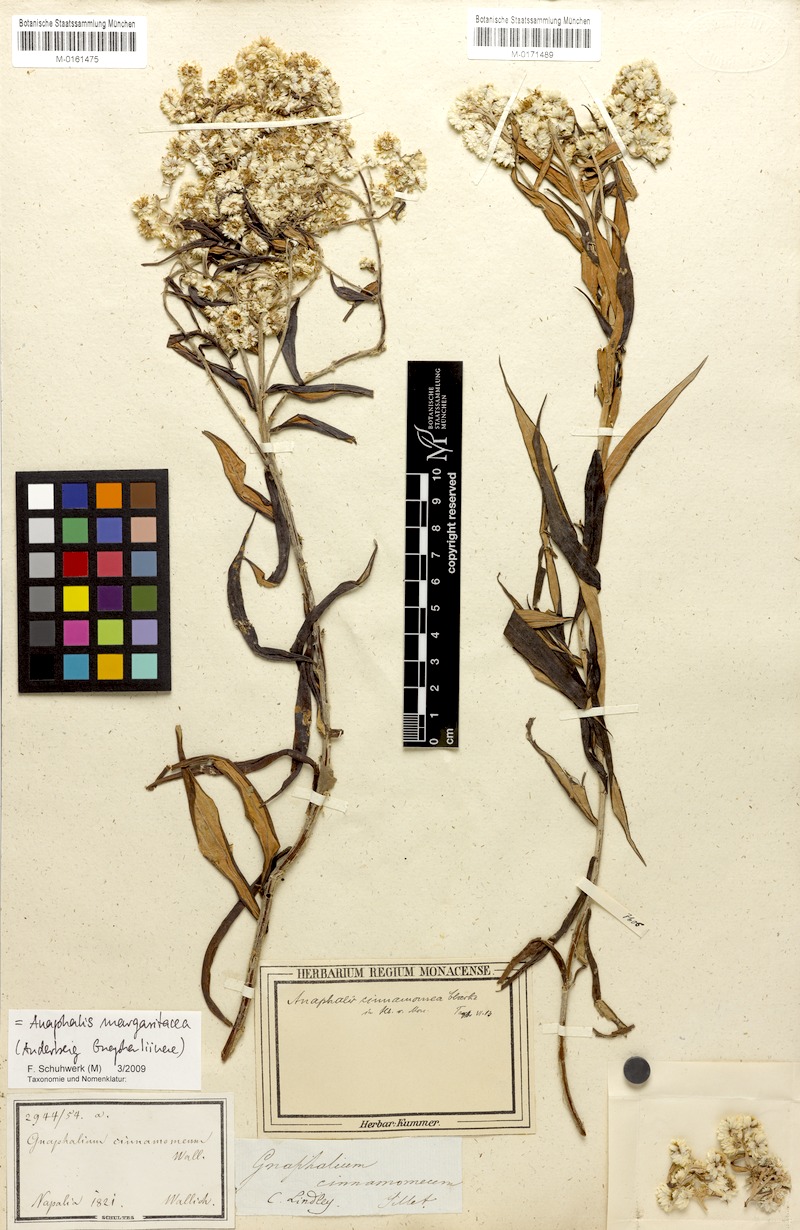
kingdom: Plantae
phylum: Tracheophyta
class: Magnoliopsida
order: Asterales
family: Asteraceae
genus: Anaphalis
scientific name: Anaphalis marcescens
